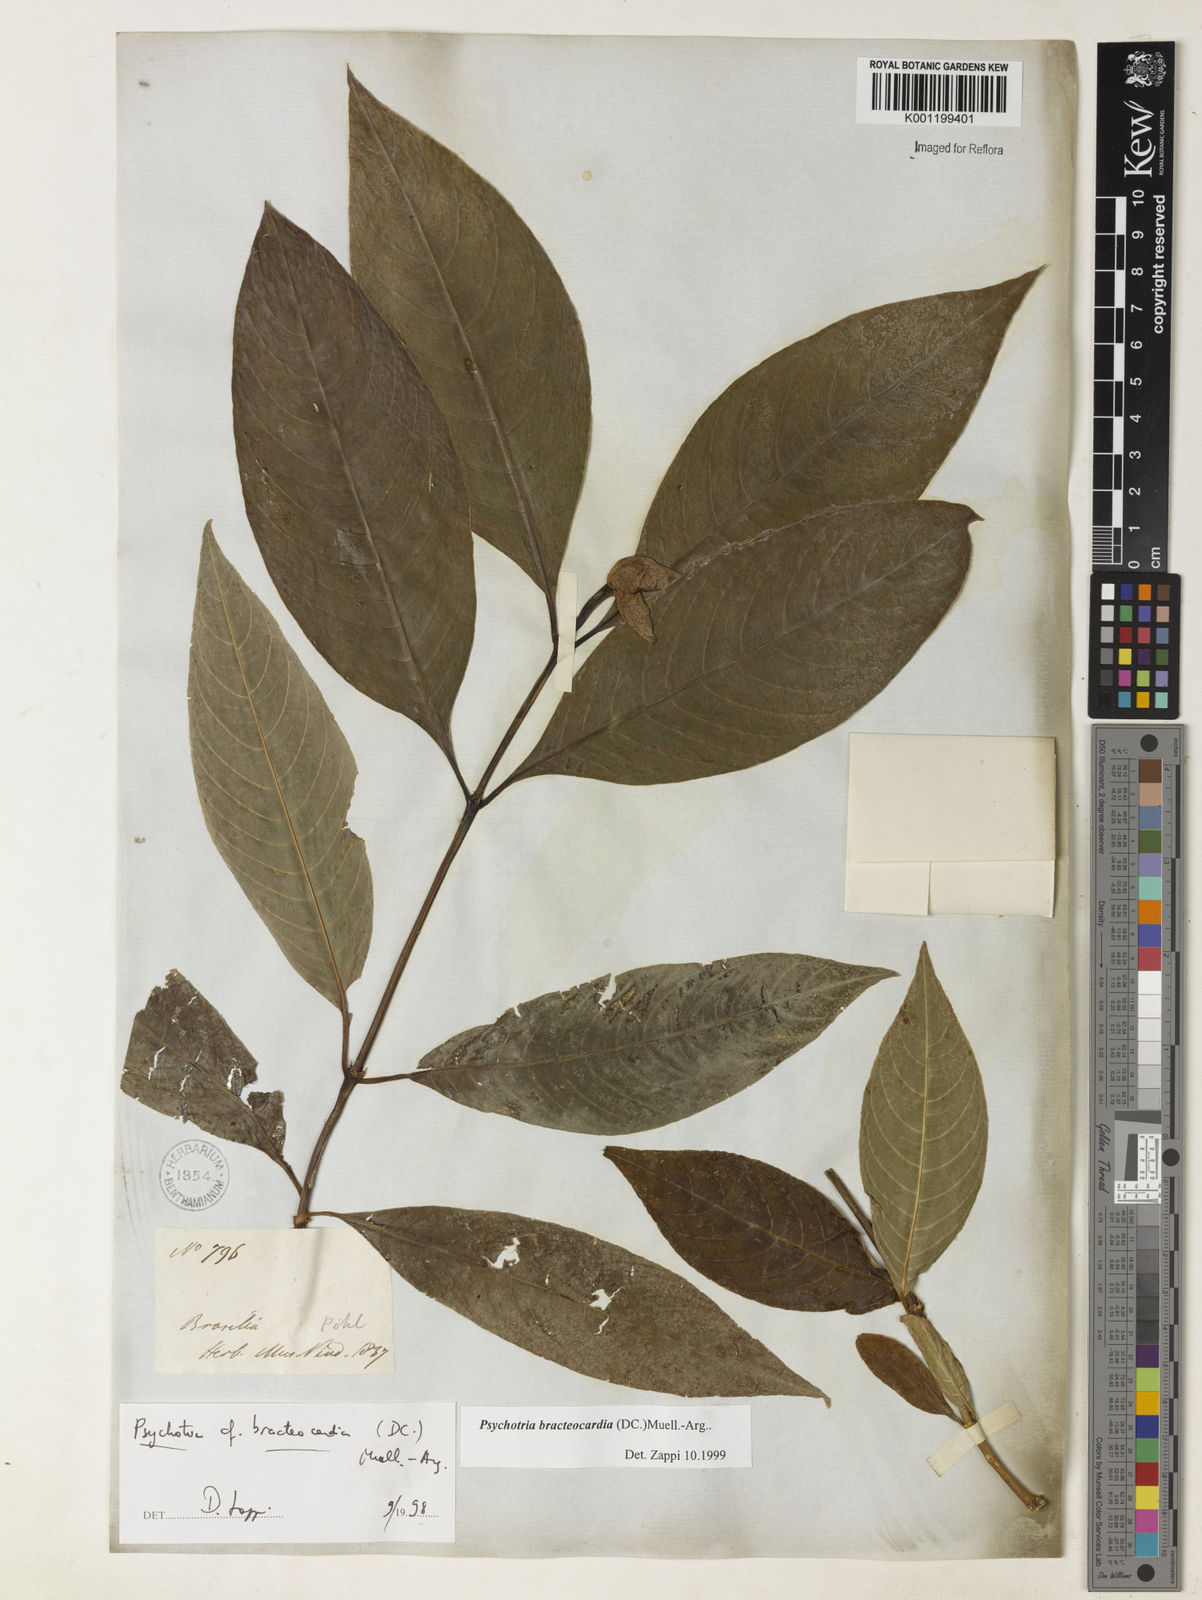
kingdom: Plantae
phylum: Tracheophyta
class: Magnoliopsida
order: Gentianales
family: Rubiaceae
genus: Psychotria
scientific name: Psychotria
